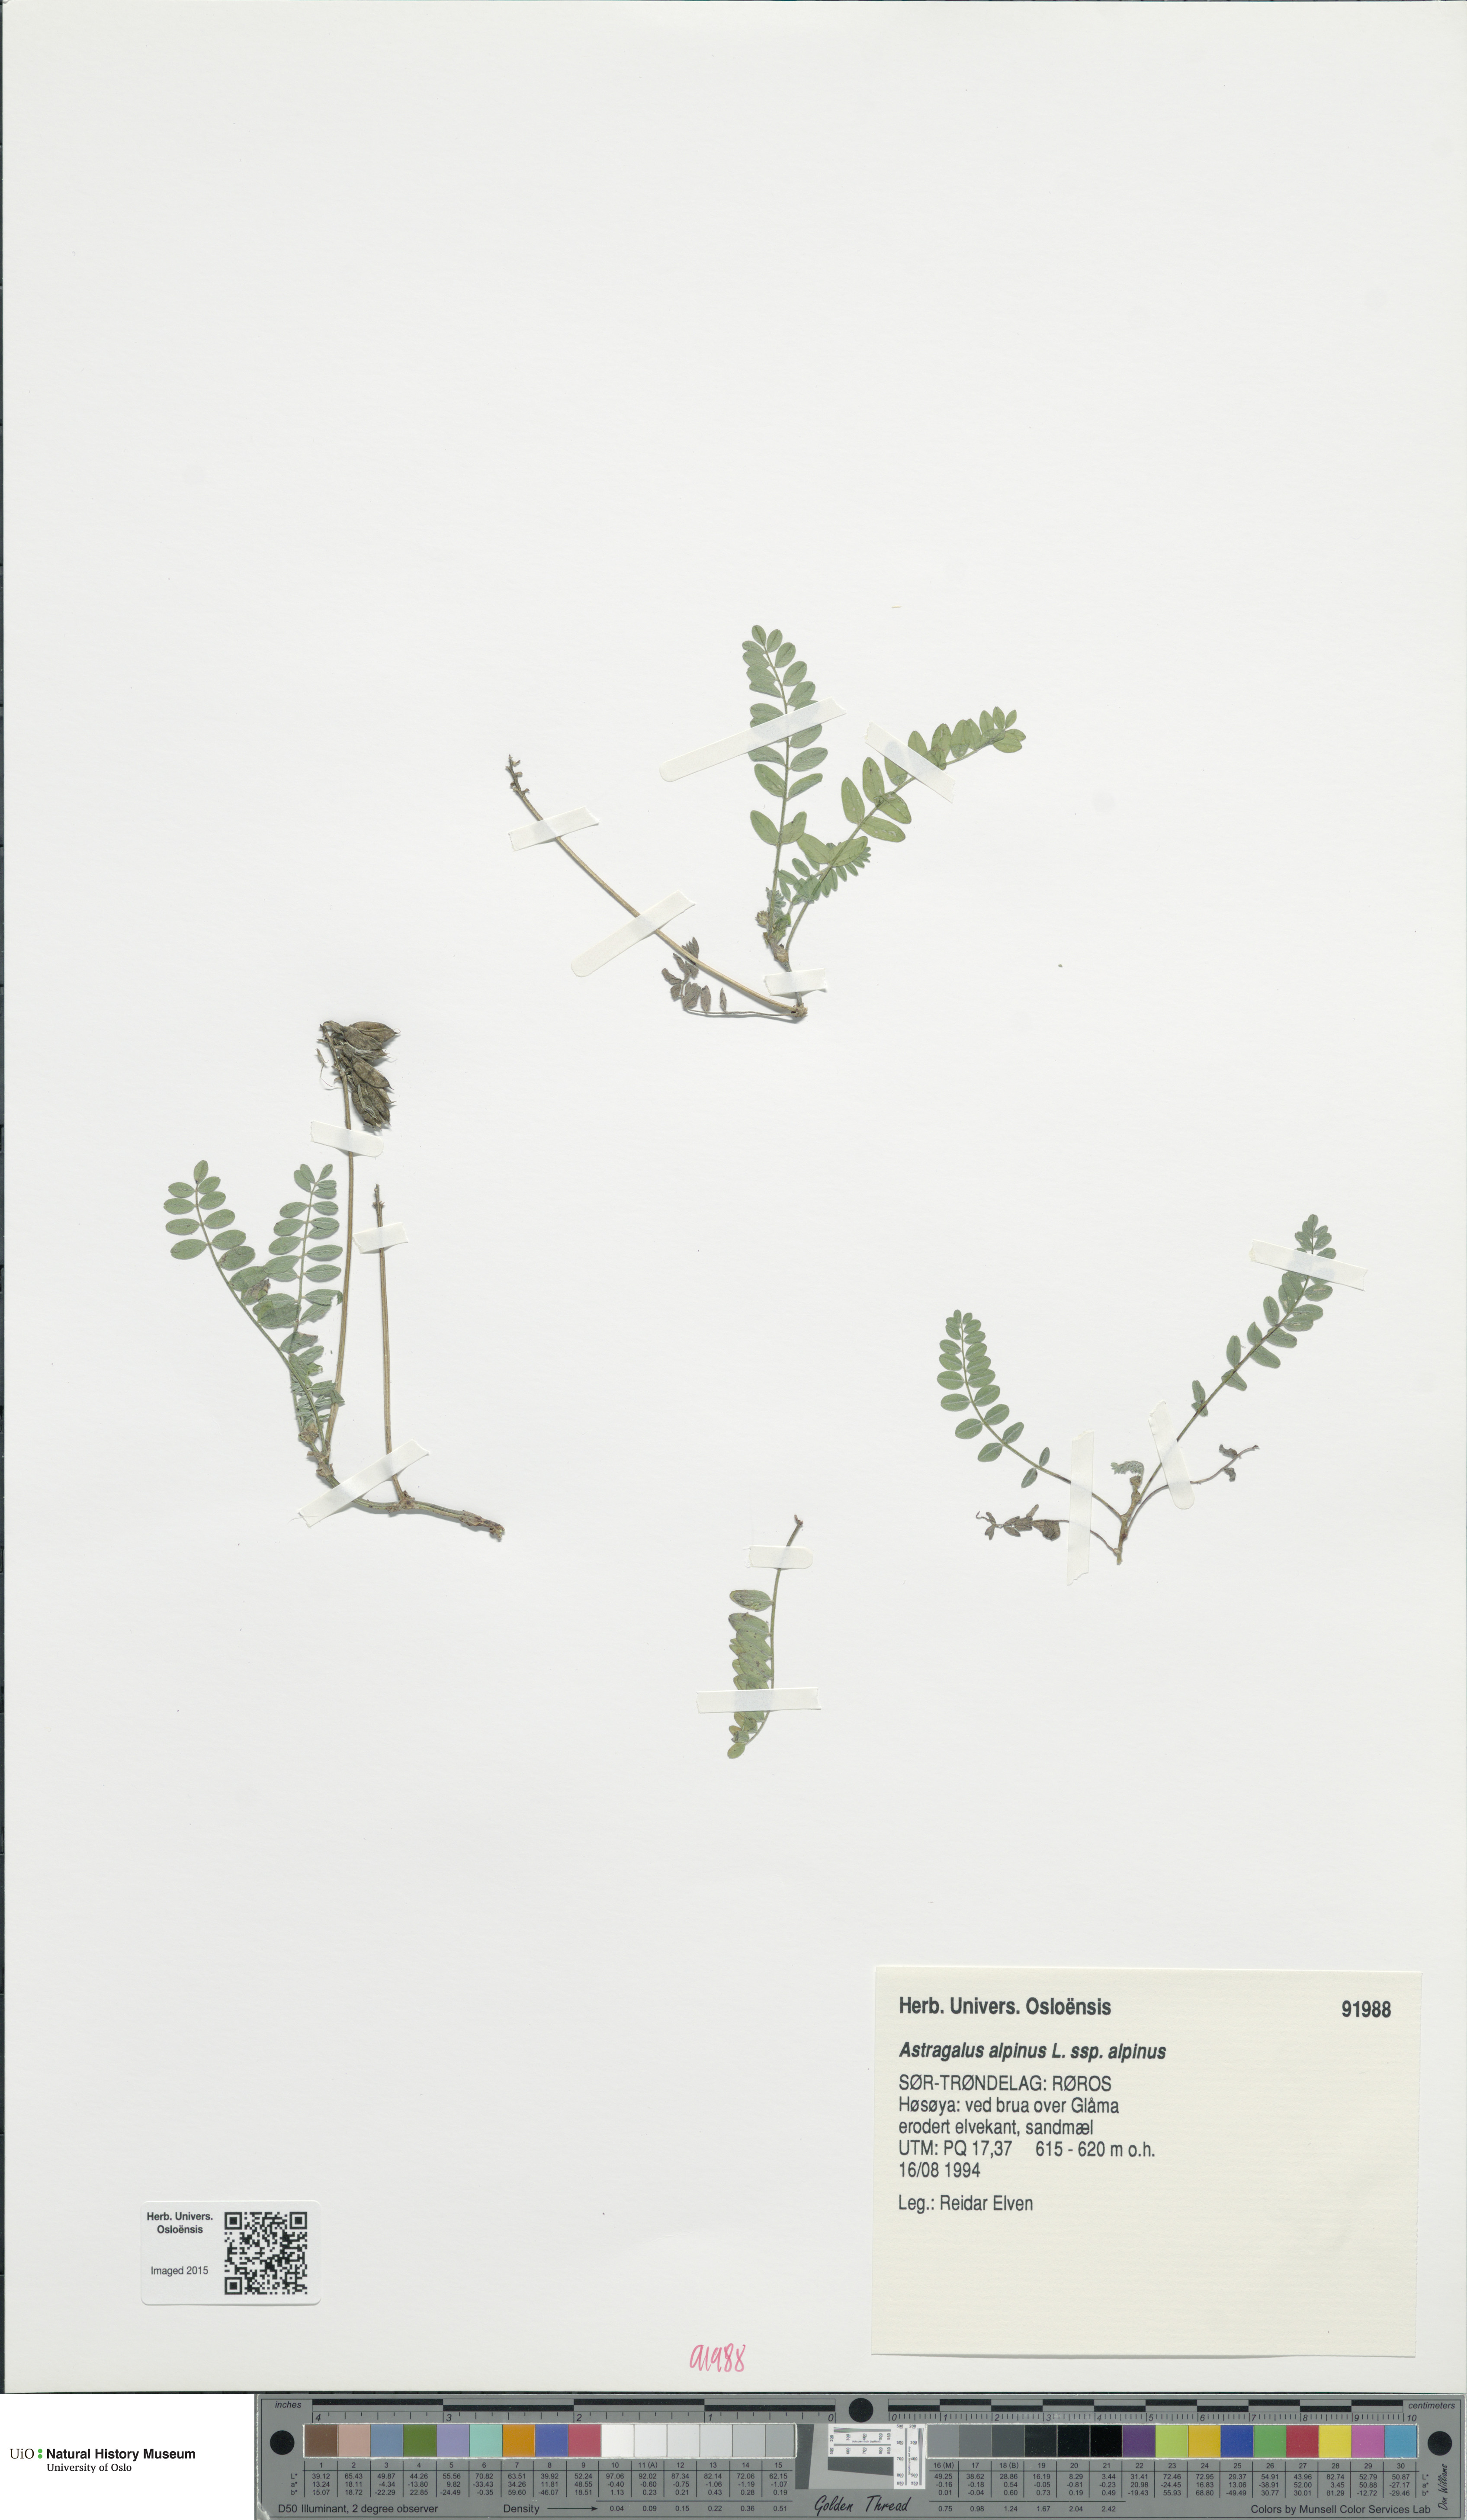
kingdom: Plantae
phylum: Tracheophyta
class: Magnoliopsida
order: Fabales
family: Fabaceae
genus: Astragalus
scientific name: Astragalus alpinus
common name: Alpine milk-vetch
